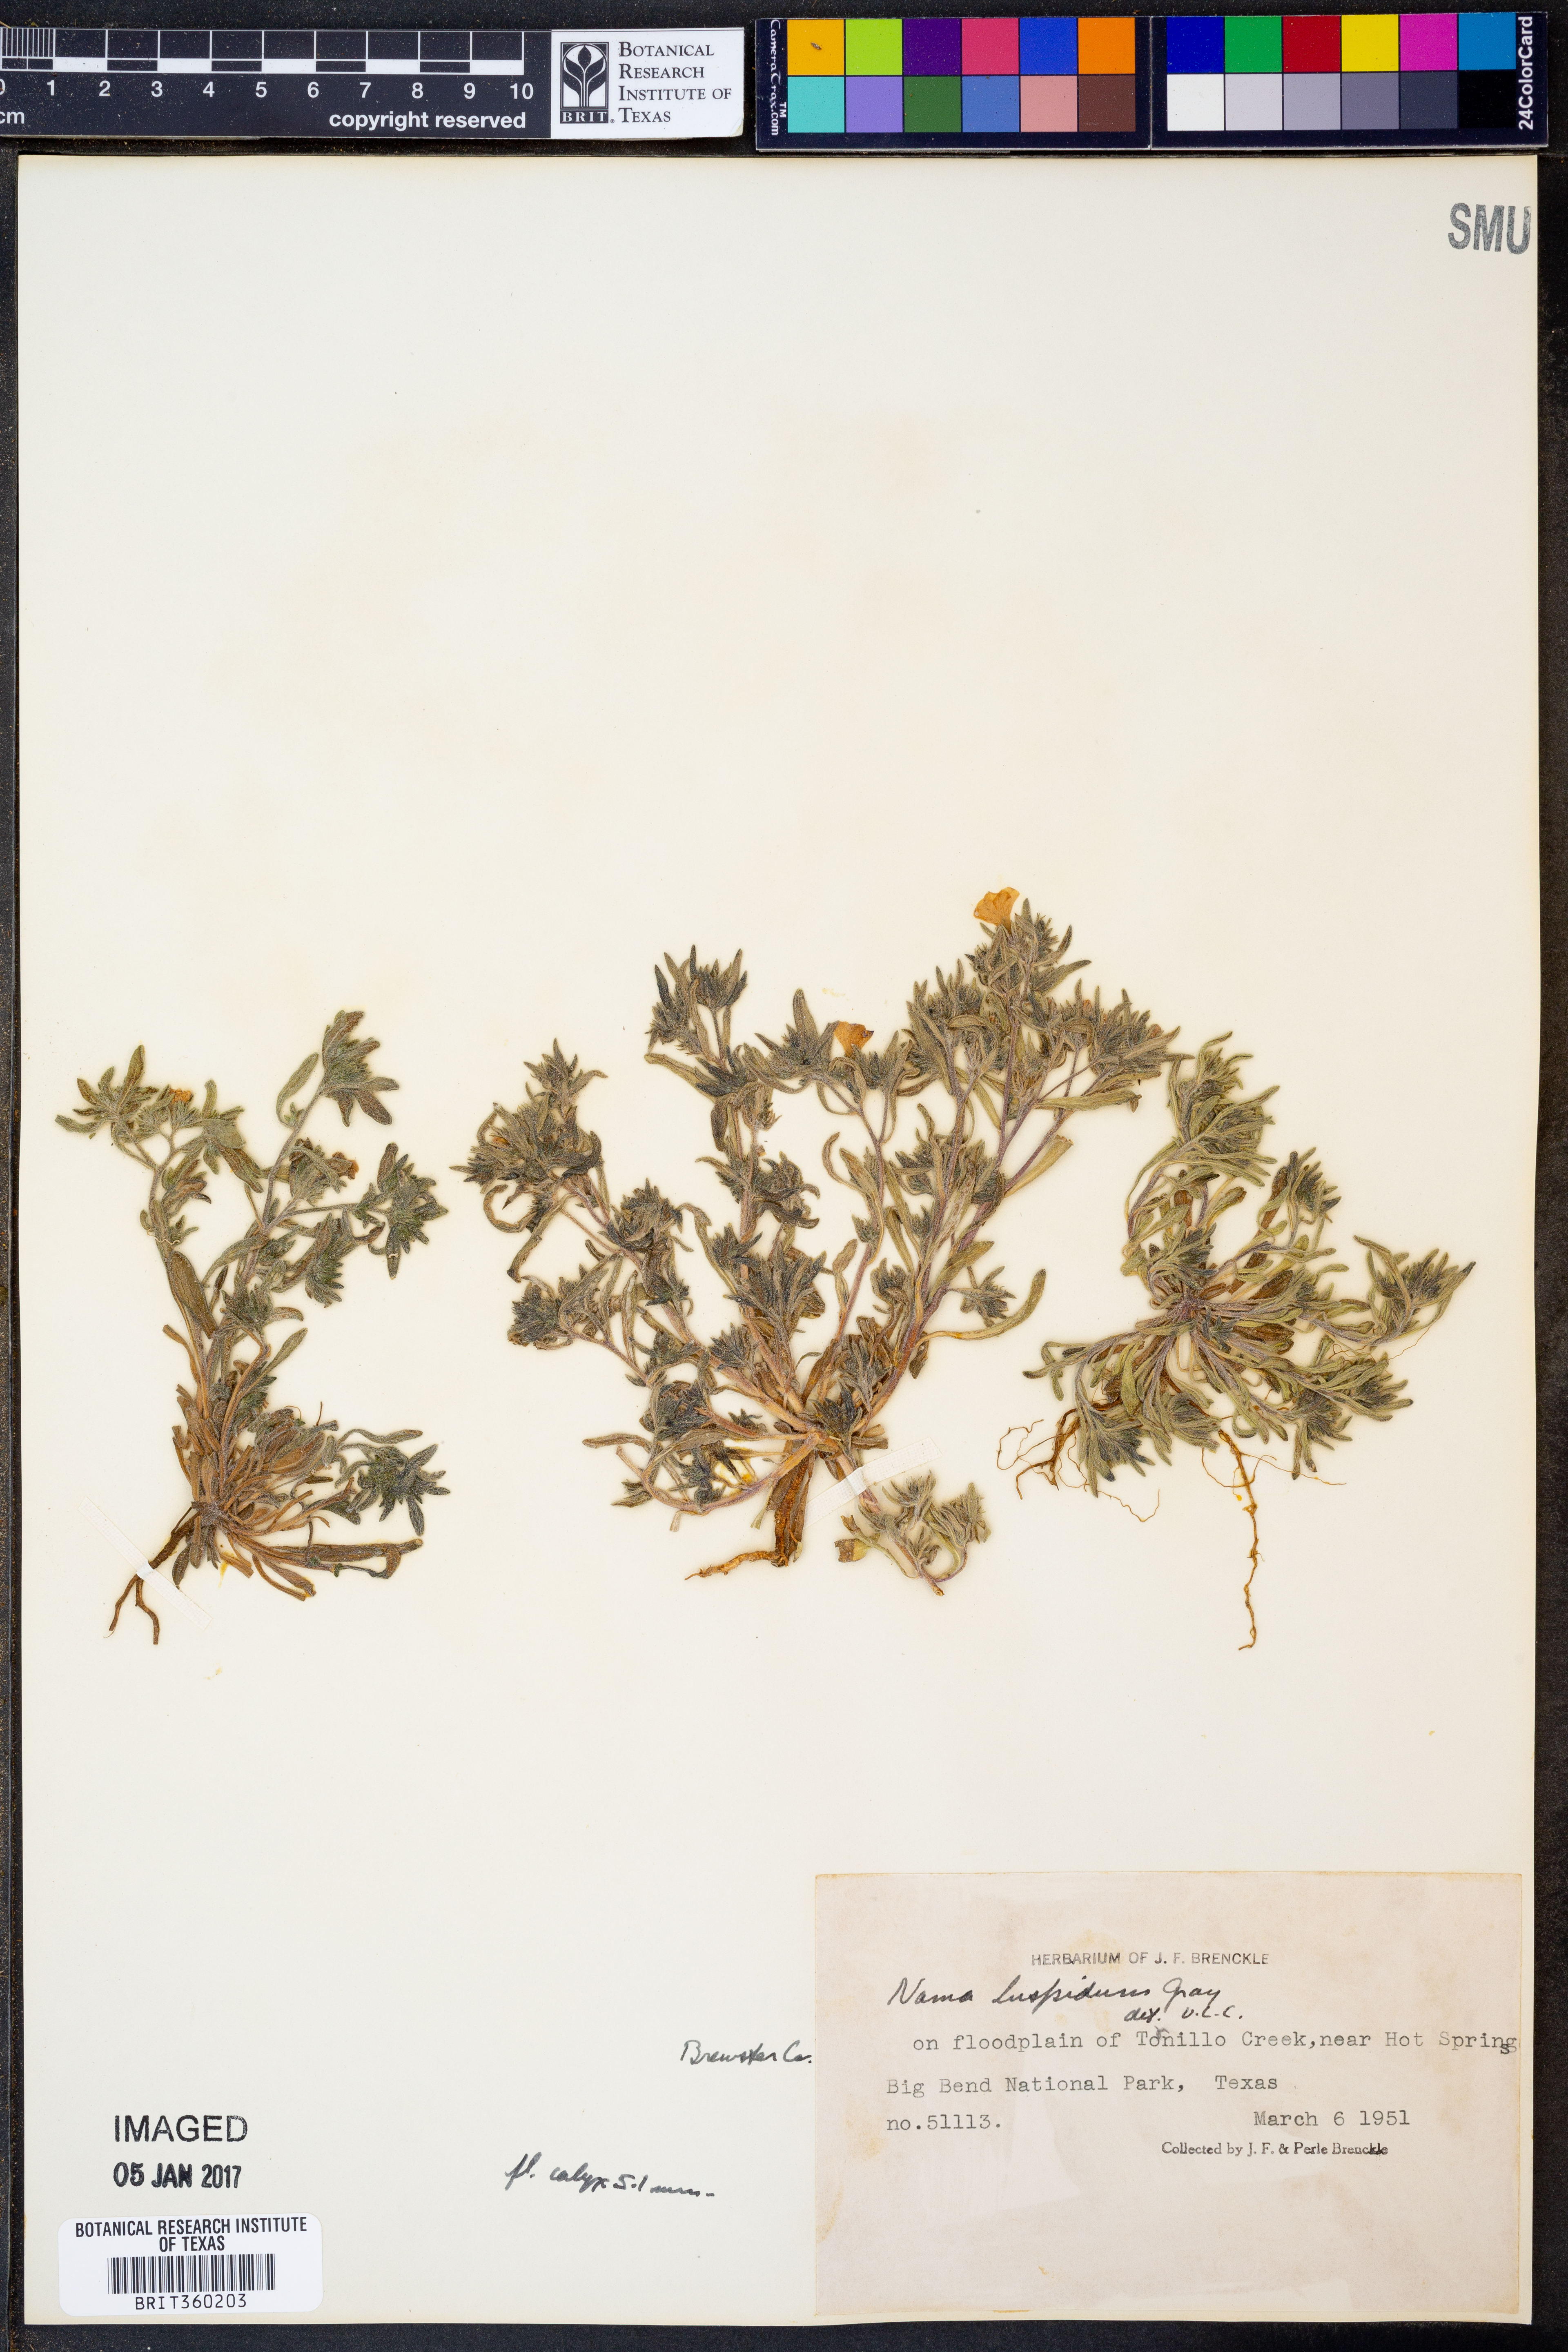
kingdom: Plantae
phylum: Tracheophyta
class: Magnoliopsida
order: Boraginales
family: Namaceae
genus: Nama
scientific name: Nama hispida
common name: Bristly nama
